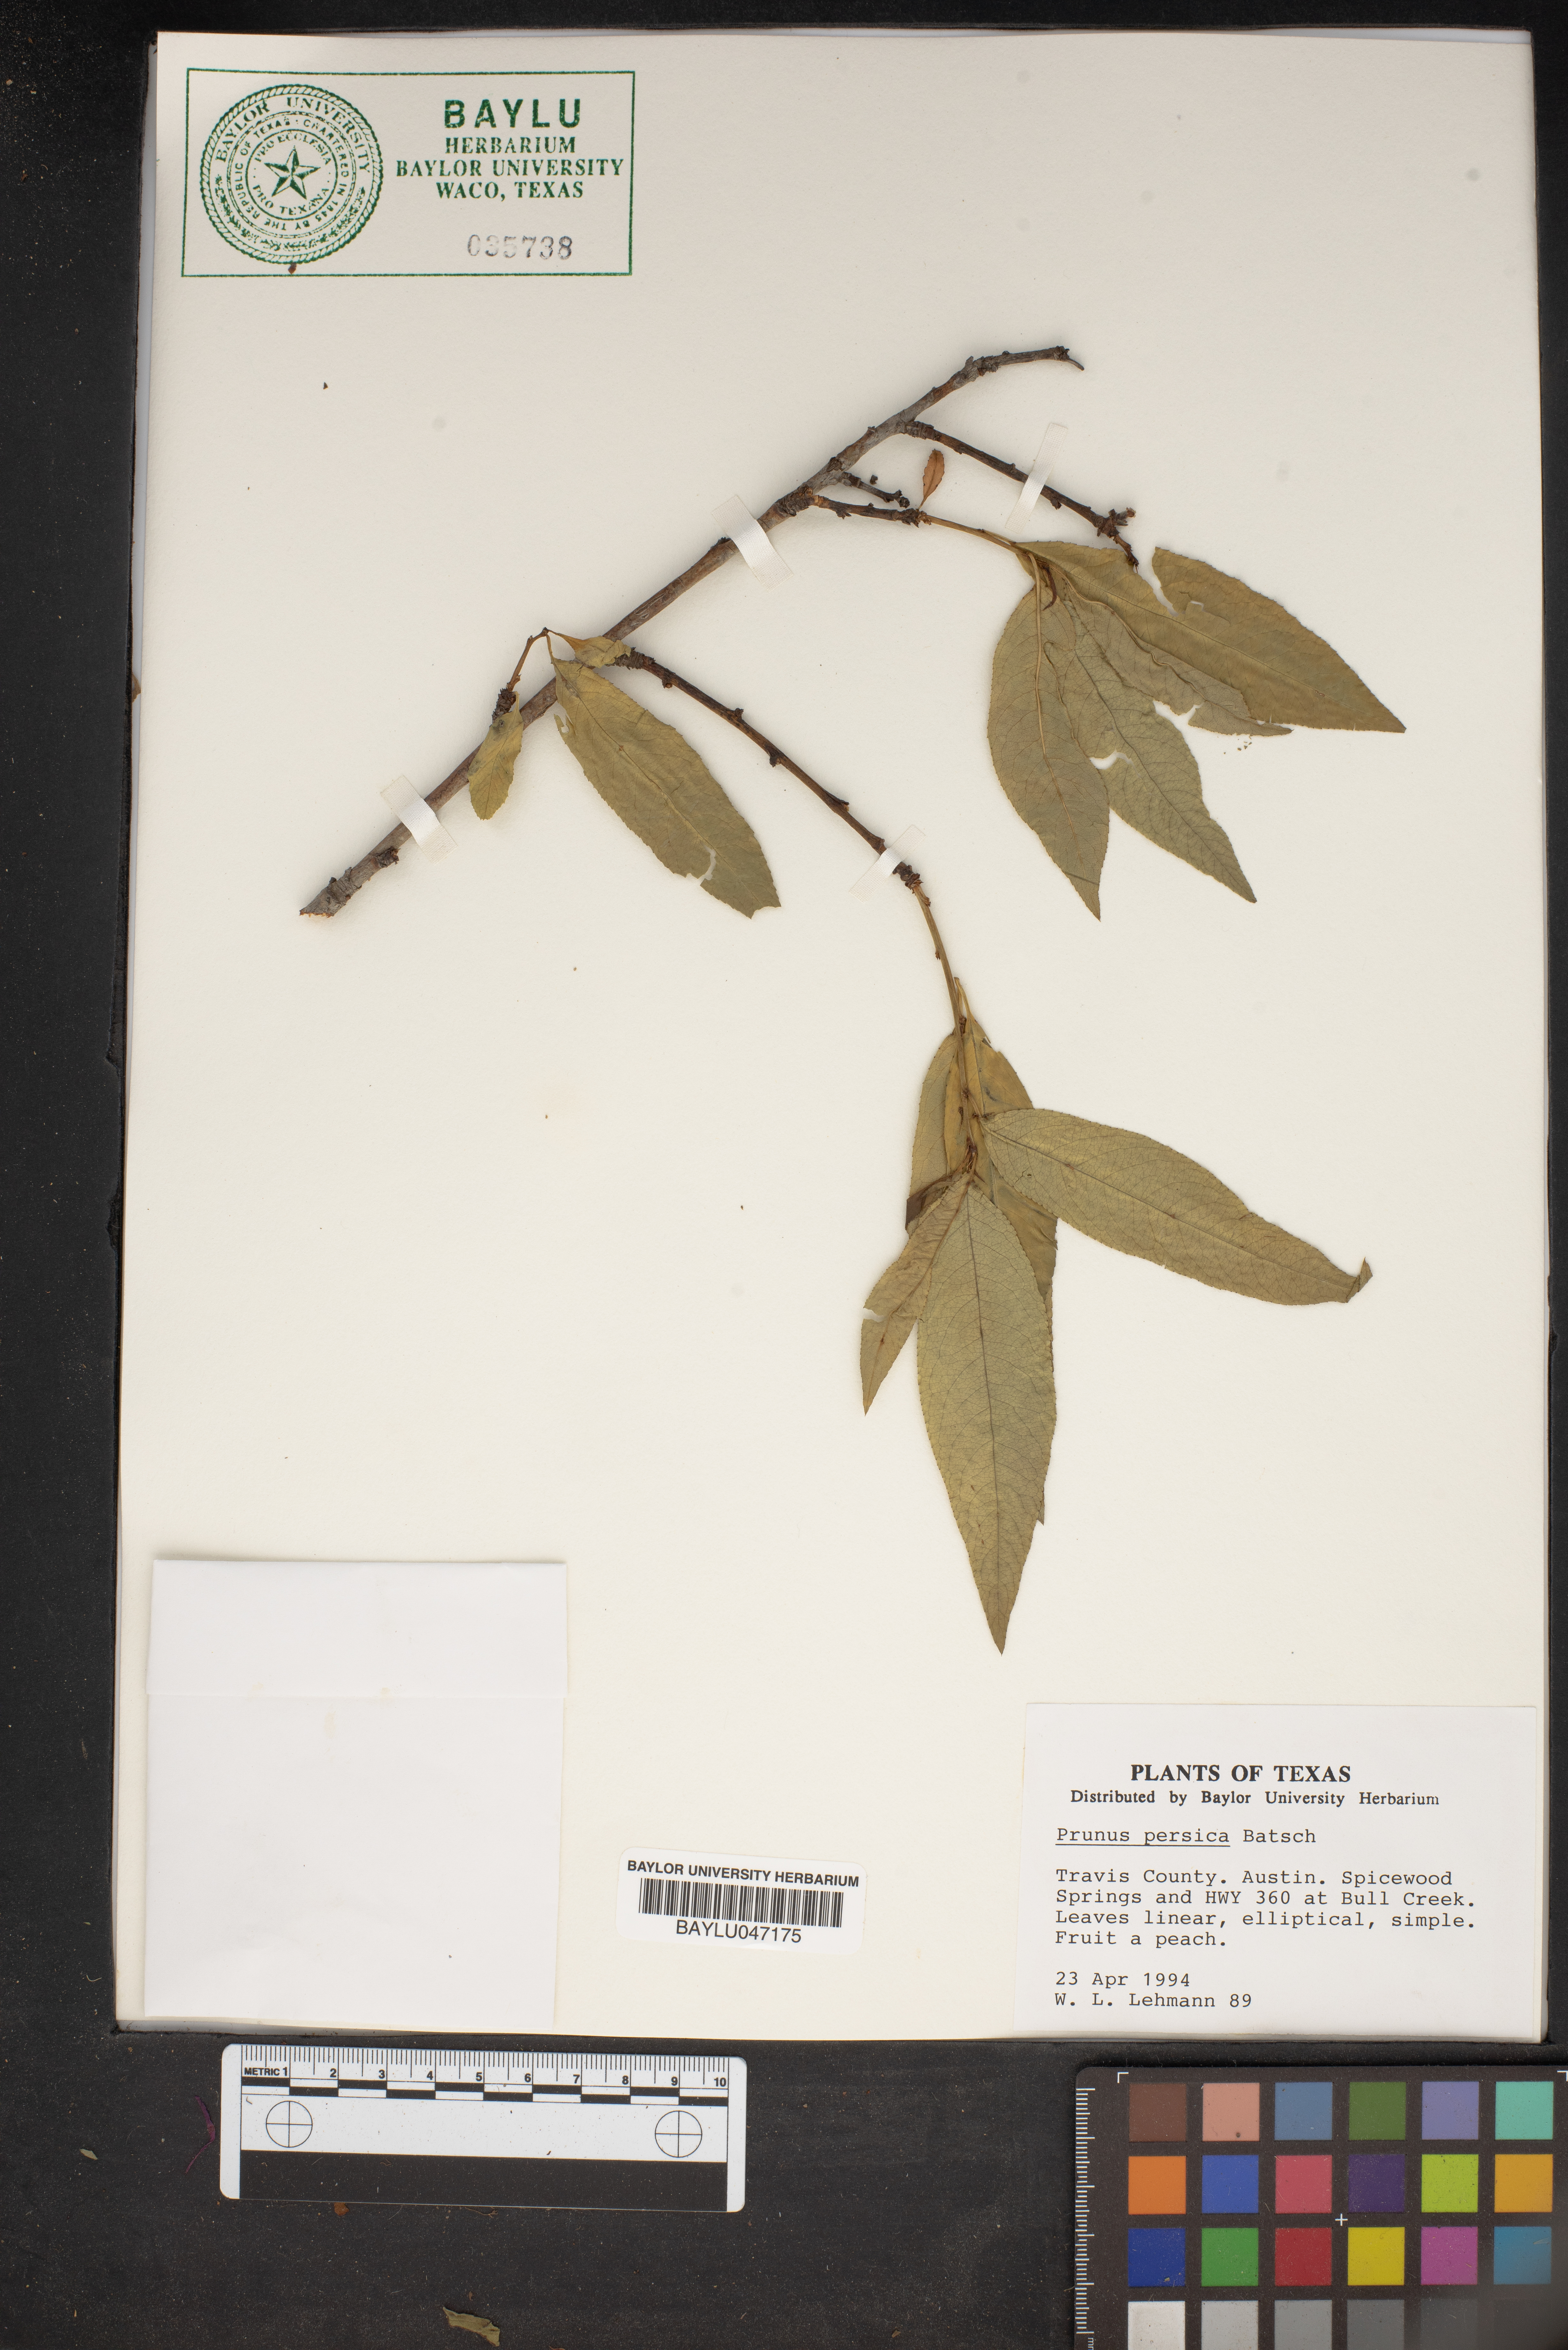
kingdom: Plantae
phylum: Tracheophyta
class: Magnoliopsida
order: Rosales
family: Rosaceae
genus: Prunus
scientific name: Prunus persica
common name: Peach
